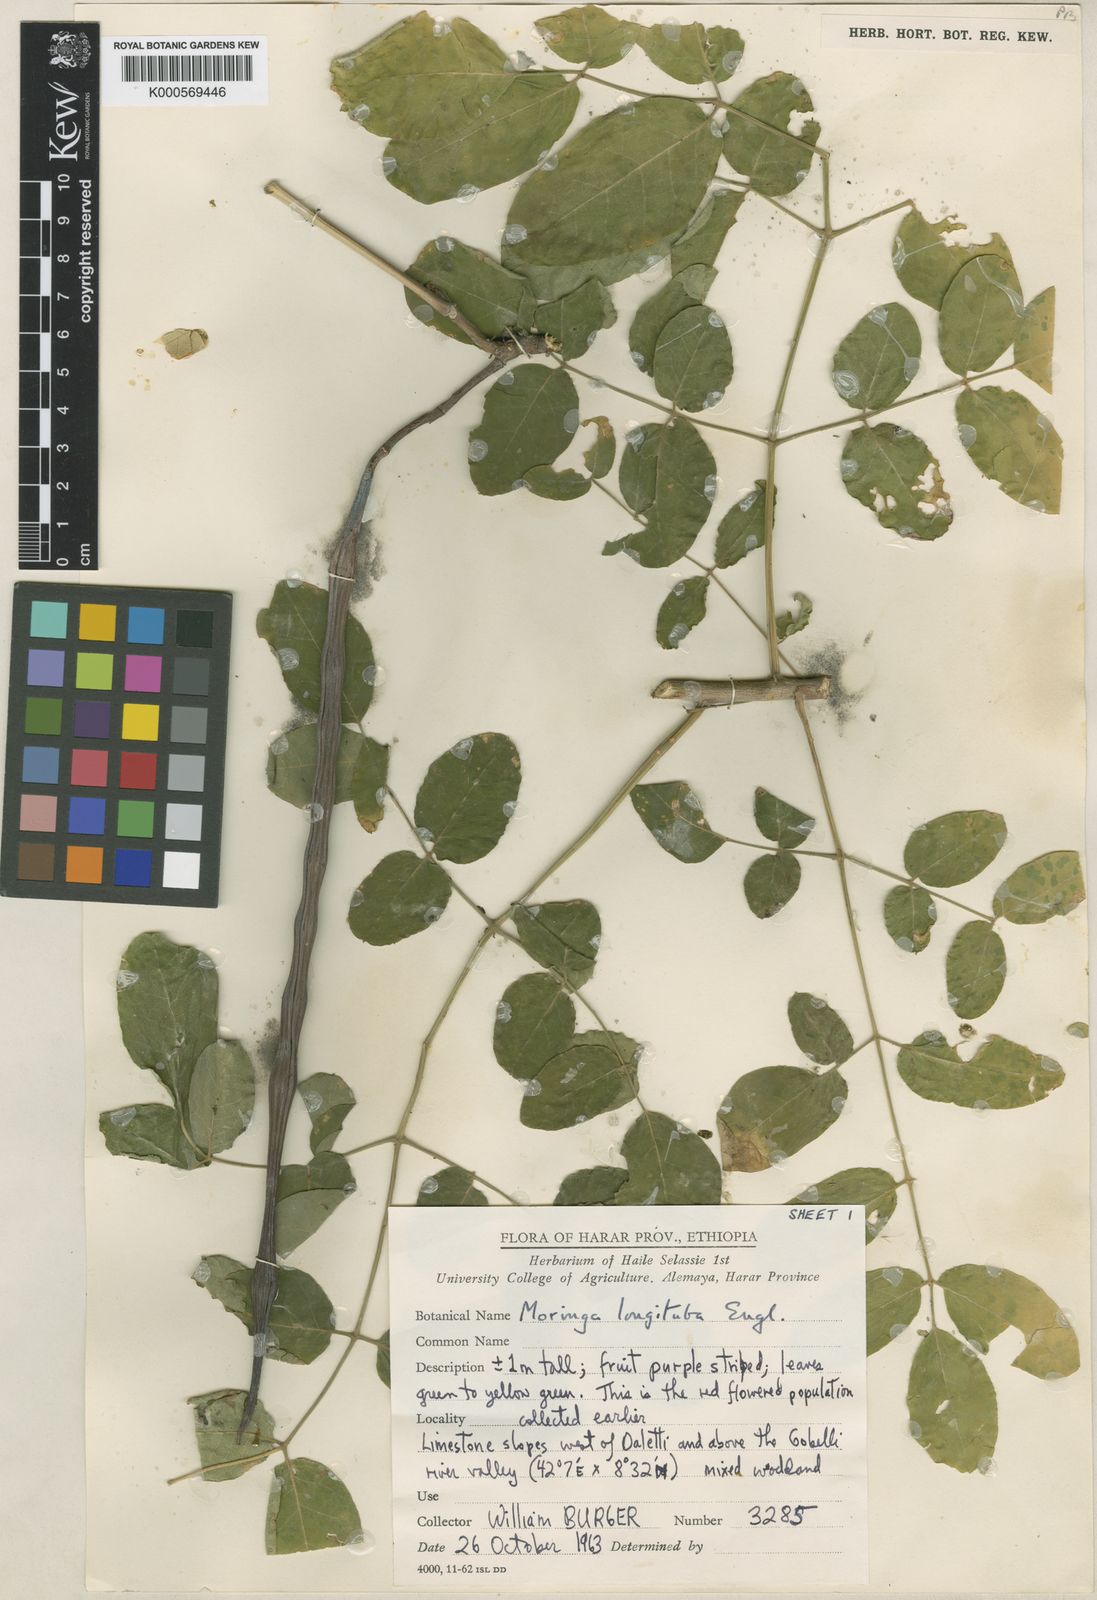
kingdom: Plantae
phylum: Tracheophyta
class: Magnoliopsida
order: Brassicales
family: Moringaceae
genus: Moringa
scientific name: Moringa longituba
